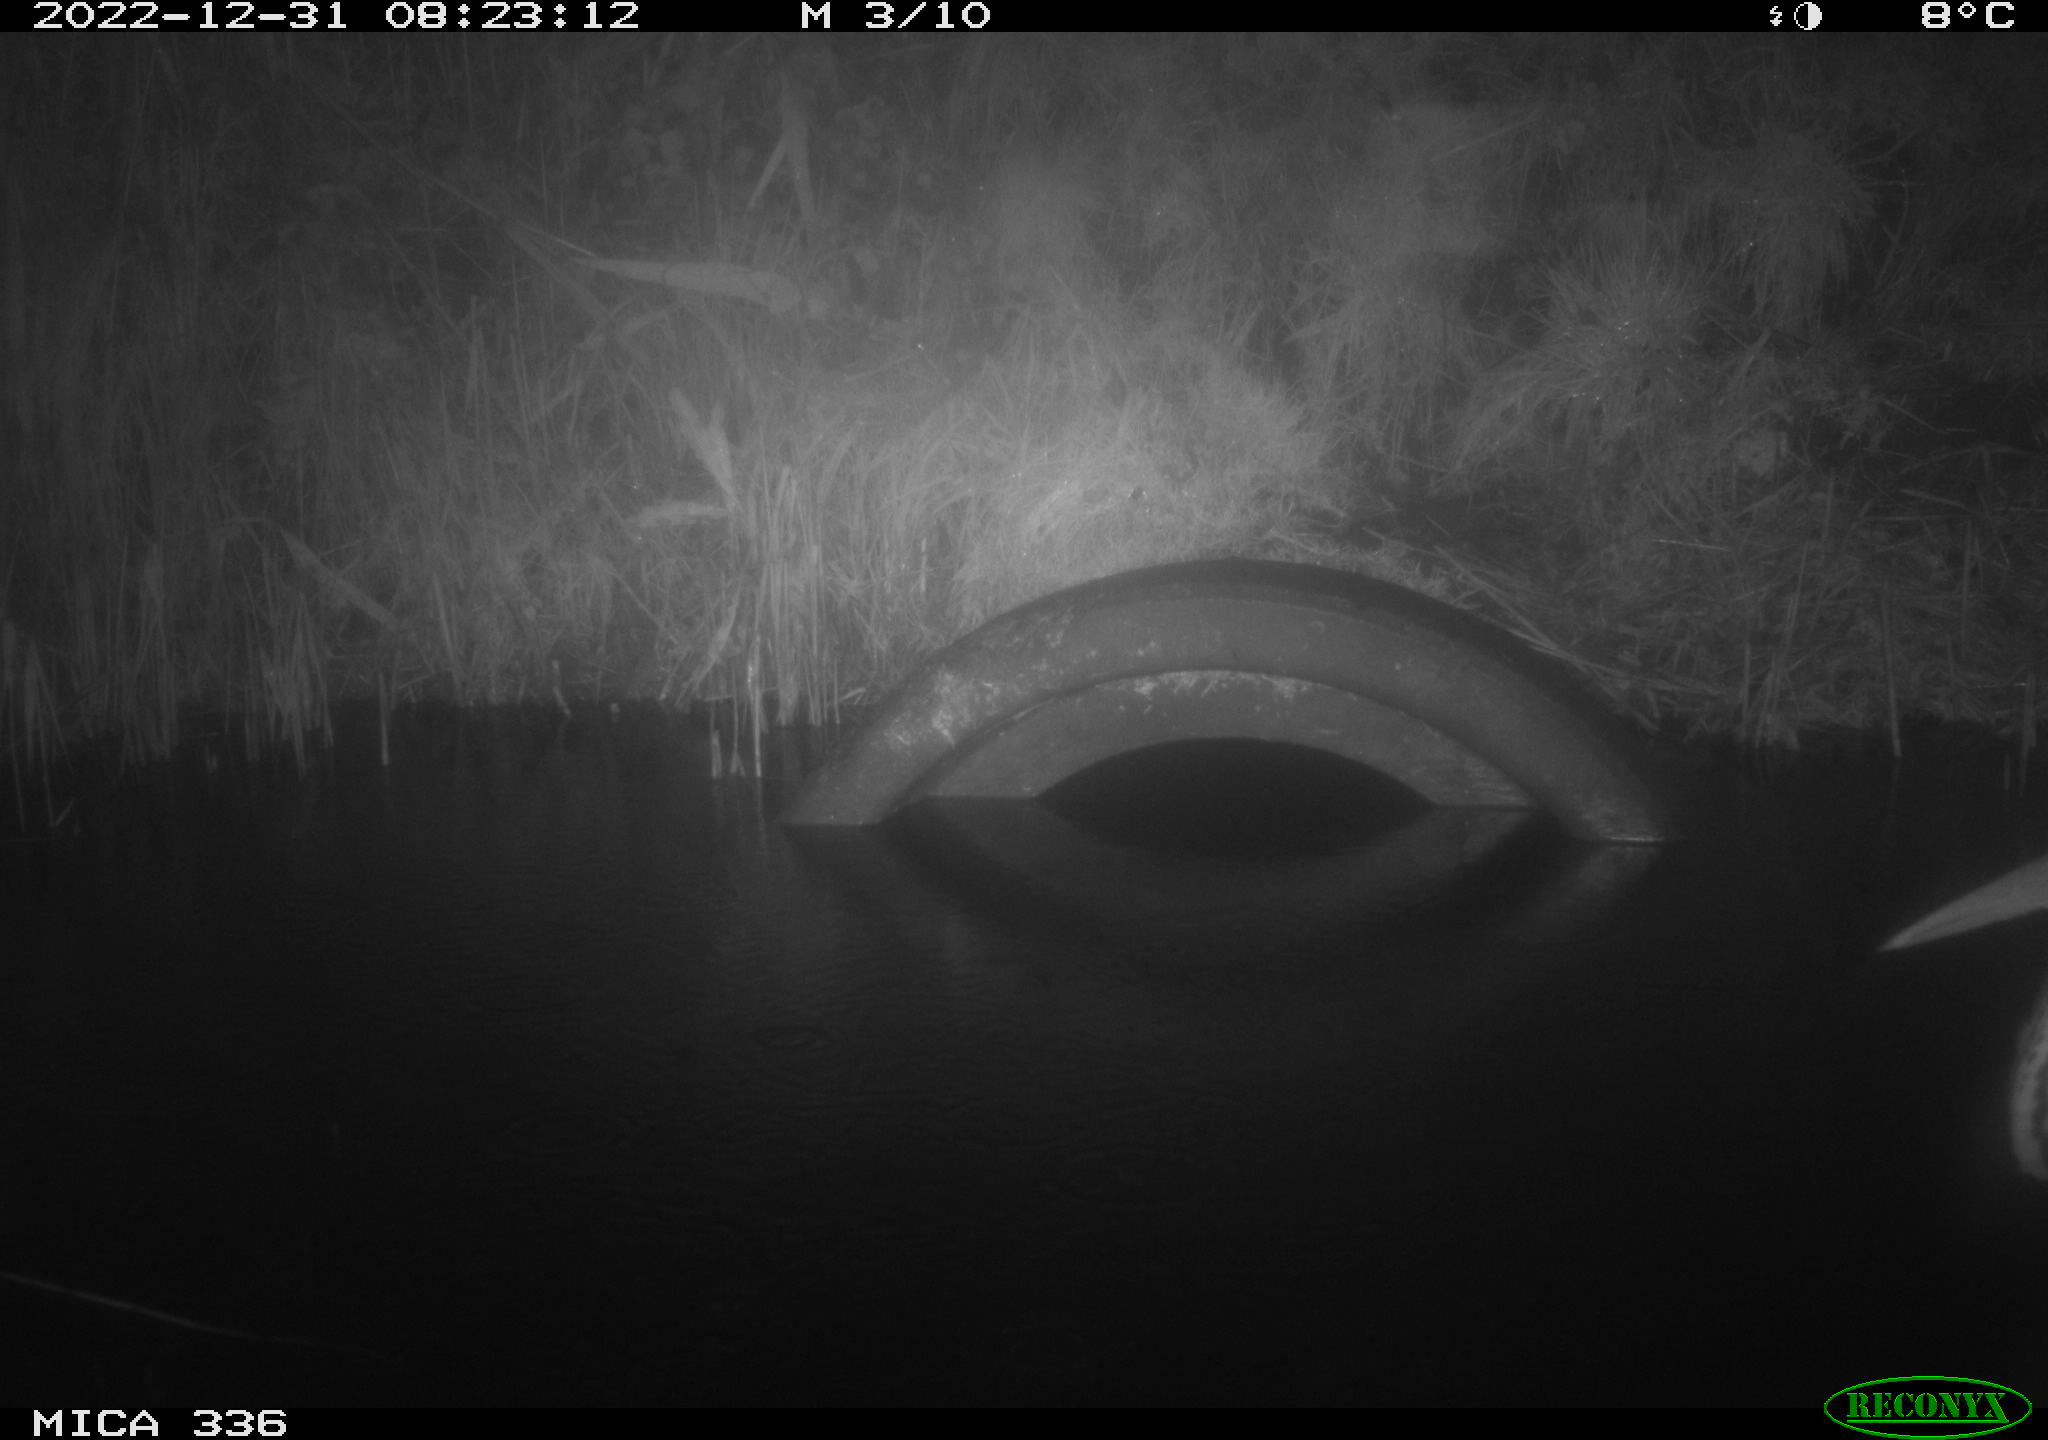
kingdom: Animalia
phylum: Chordata
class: Aves
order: Pelecaniformes
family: Ardeidae
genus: Ardea
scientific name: Ardea cinerea
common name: Grey heron
